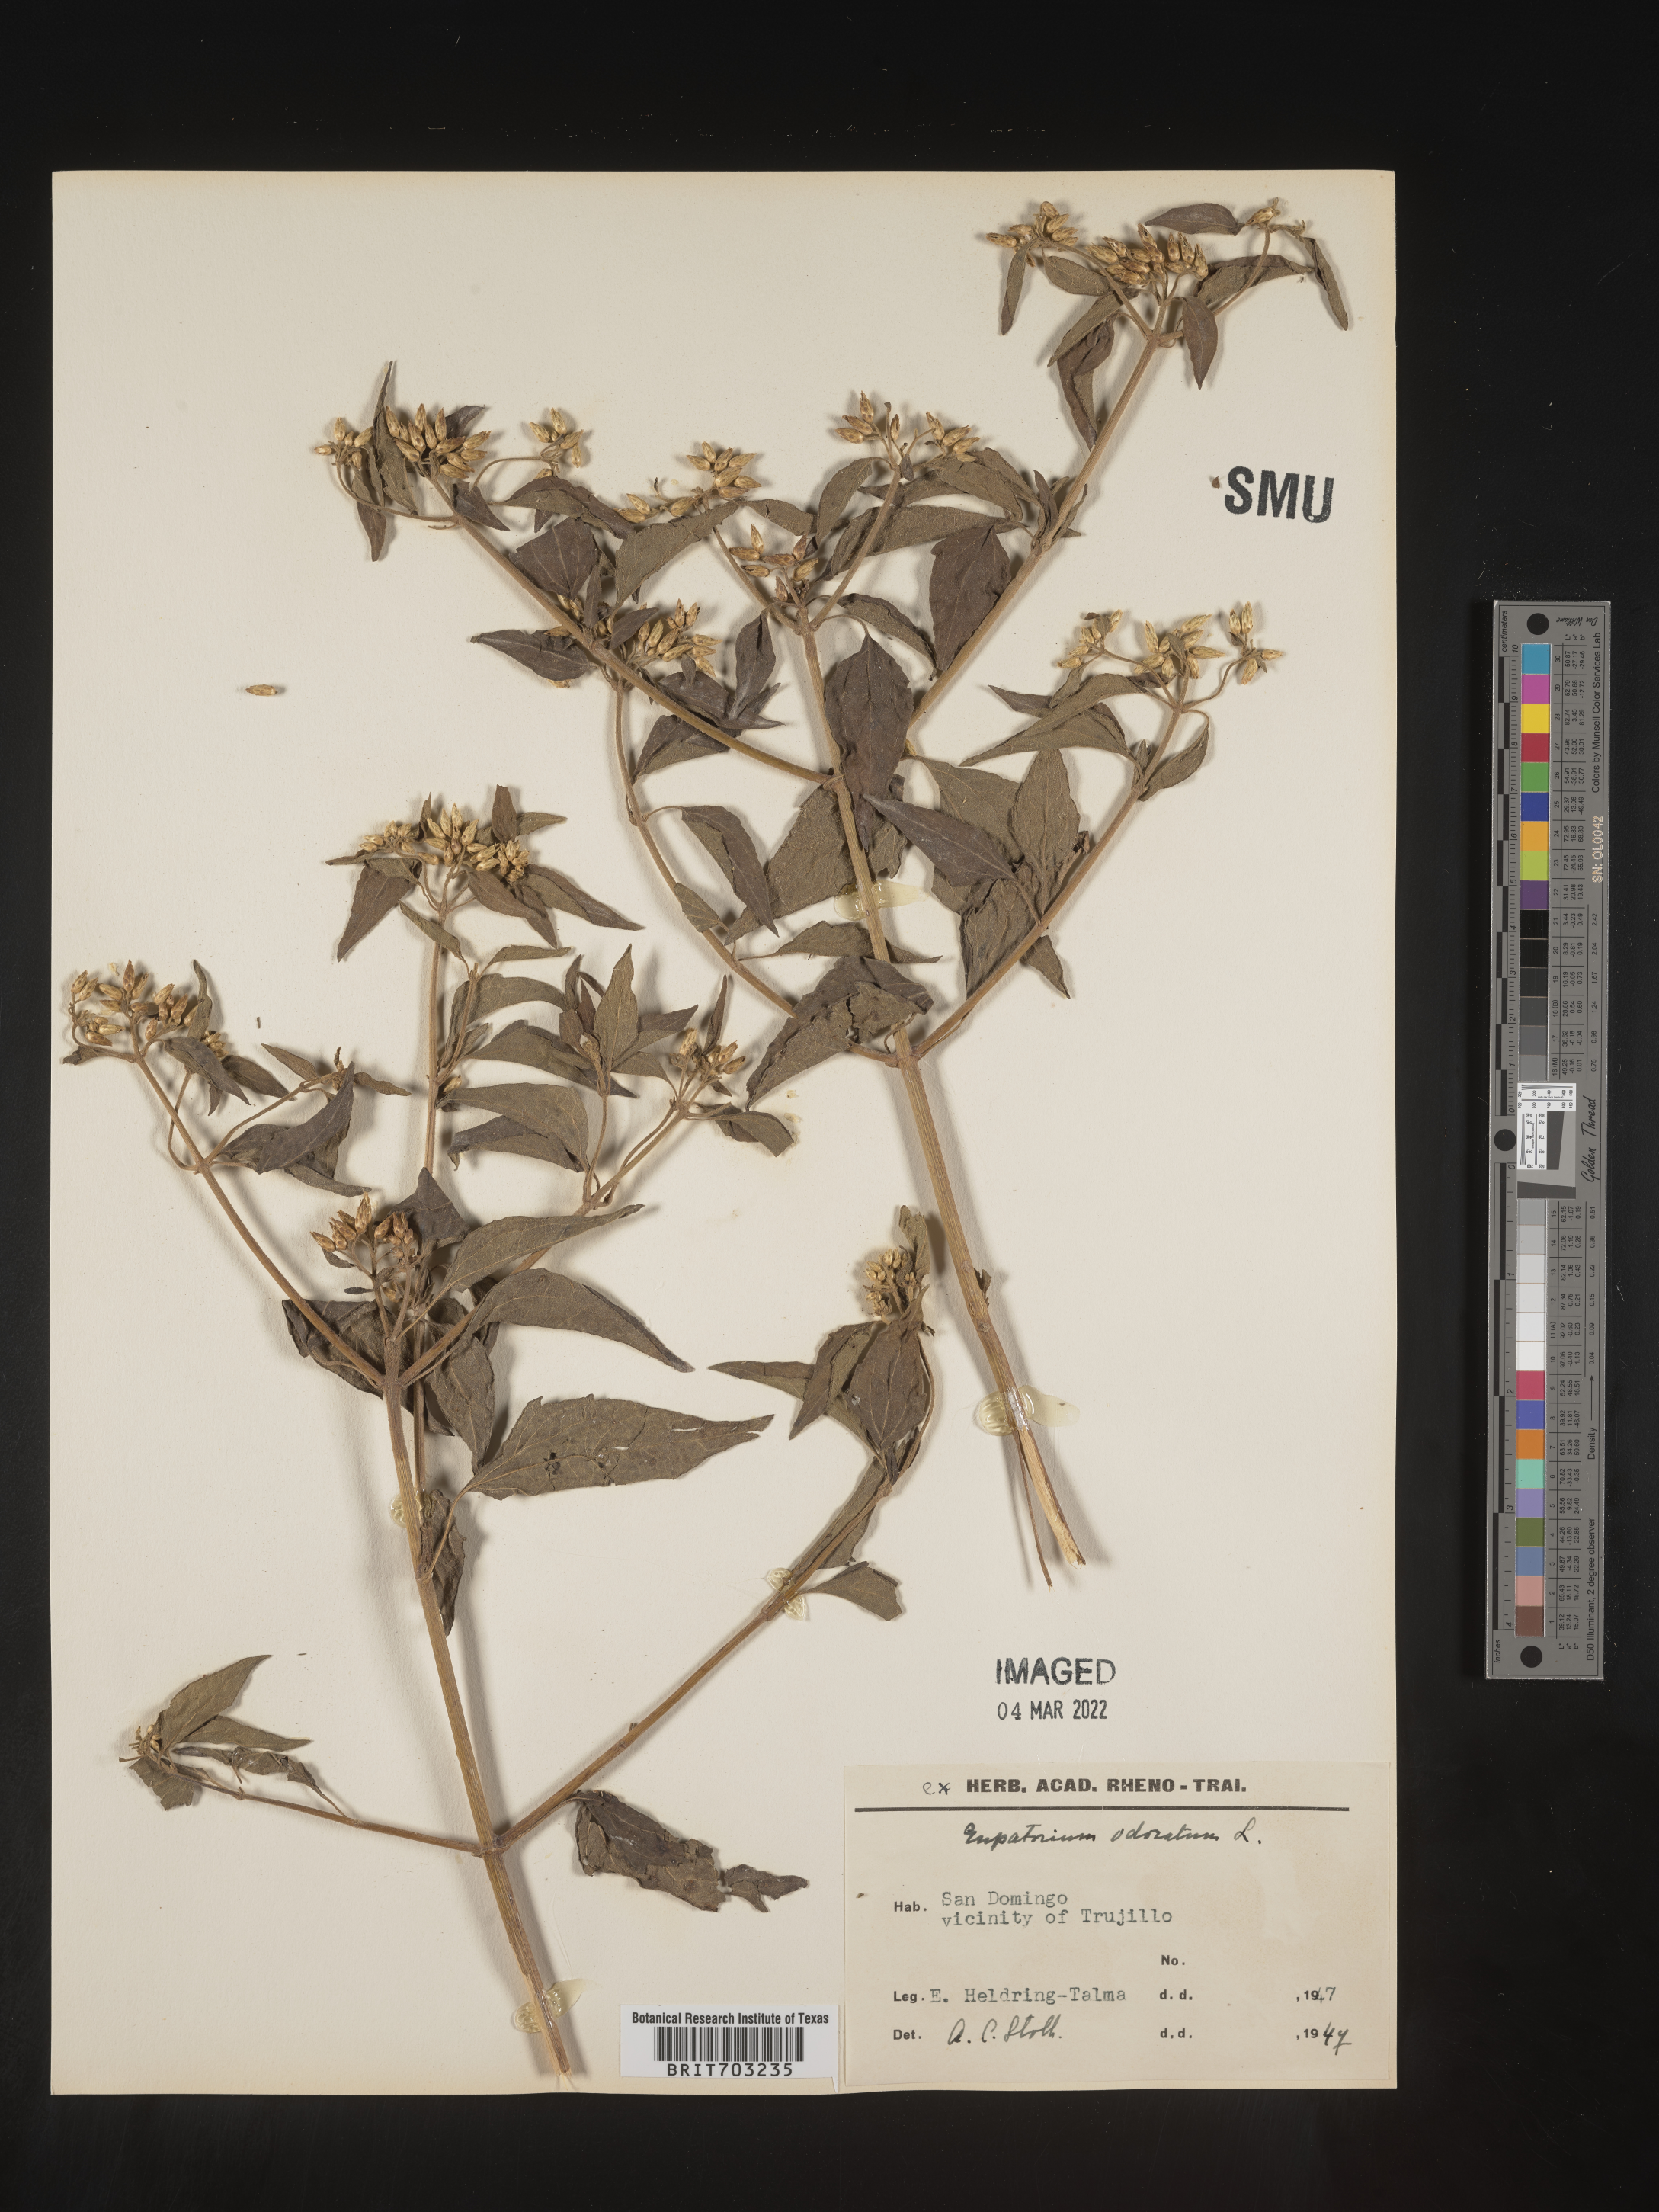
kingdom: Plantae
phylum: Tracheophyta
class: Magnoliopsida
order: Asterales
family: Asteraceae
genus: Eupatorium
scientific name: Eupatorium
